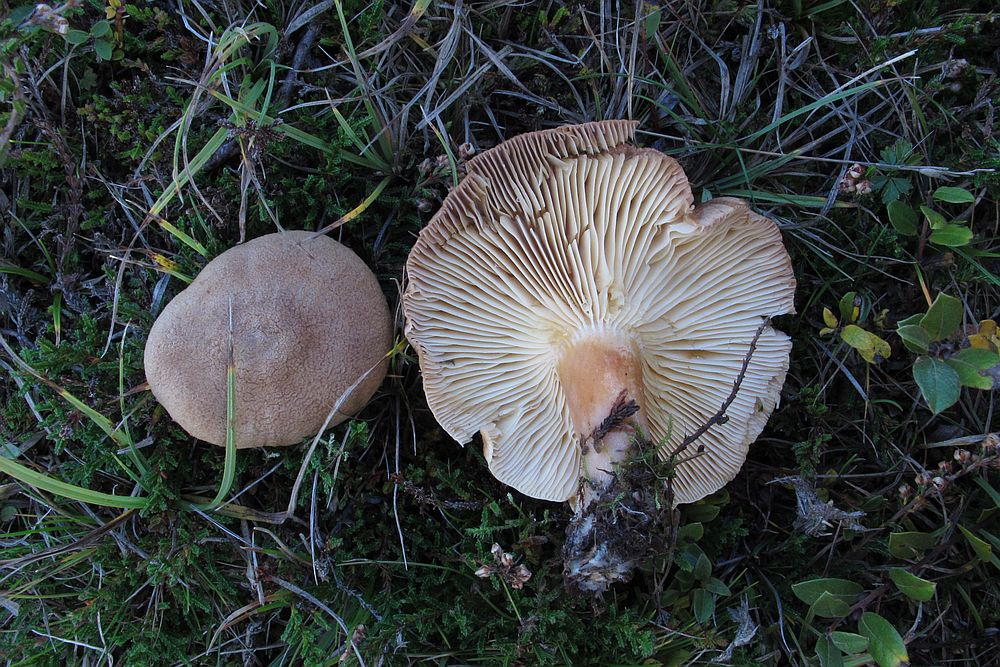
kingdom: Fungi
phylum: Basidiomycota
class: Agaricomycetes
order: Russulales
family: Russulaceae
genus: Lactarius
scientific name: Lactarius quietus
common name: ege-mælkehat
